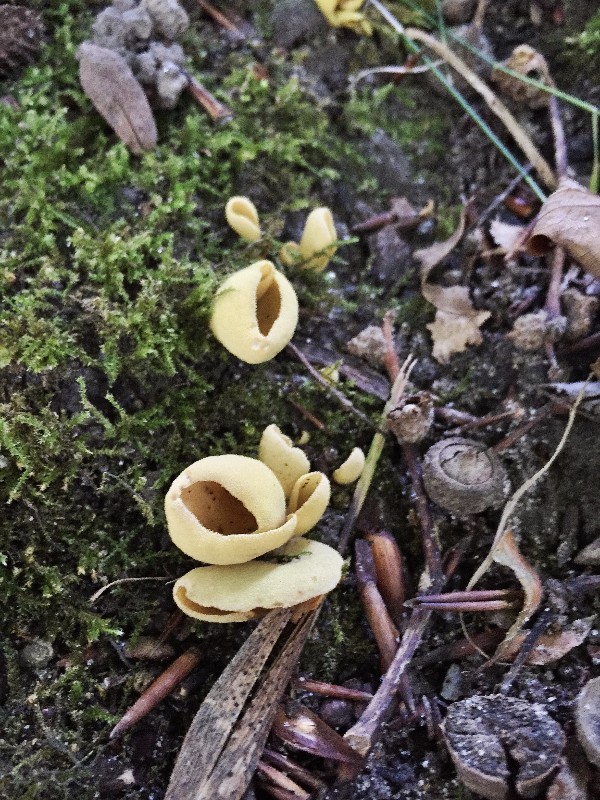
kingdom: Fungi
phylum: Ascomycota
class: Pezizomycetes
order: Pezizales
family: Otideaceae
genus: Otidea
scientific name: Otidea cantharella
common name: citrongul ørebæger
